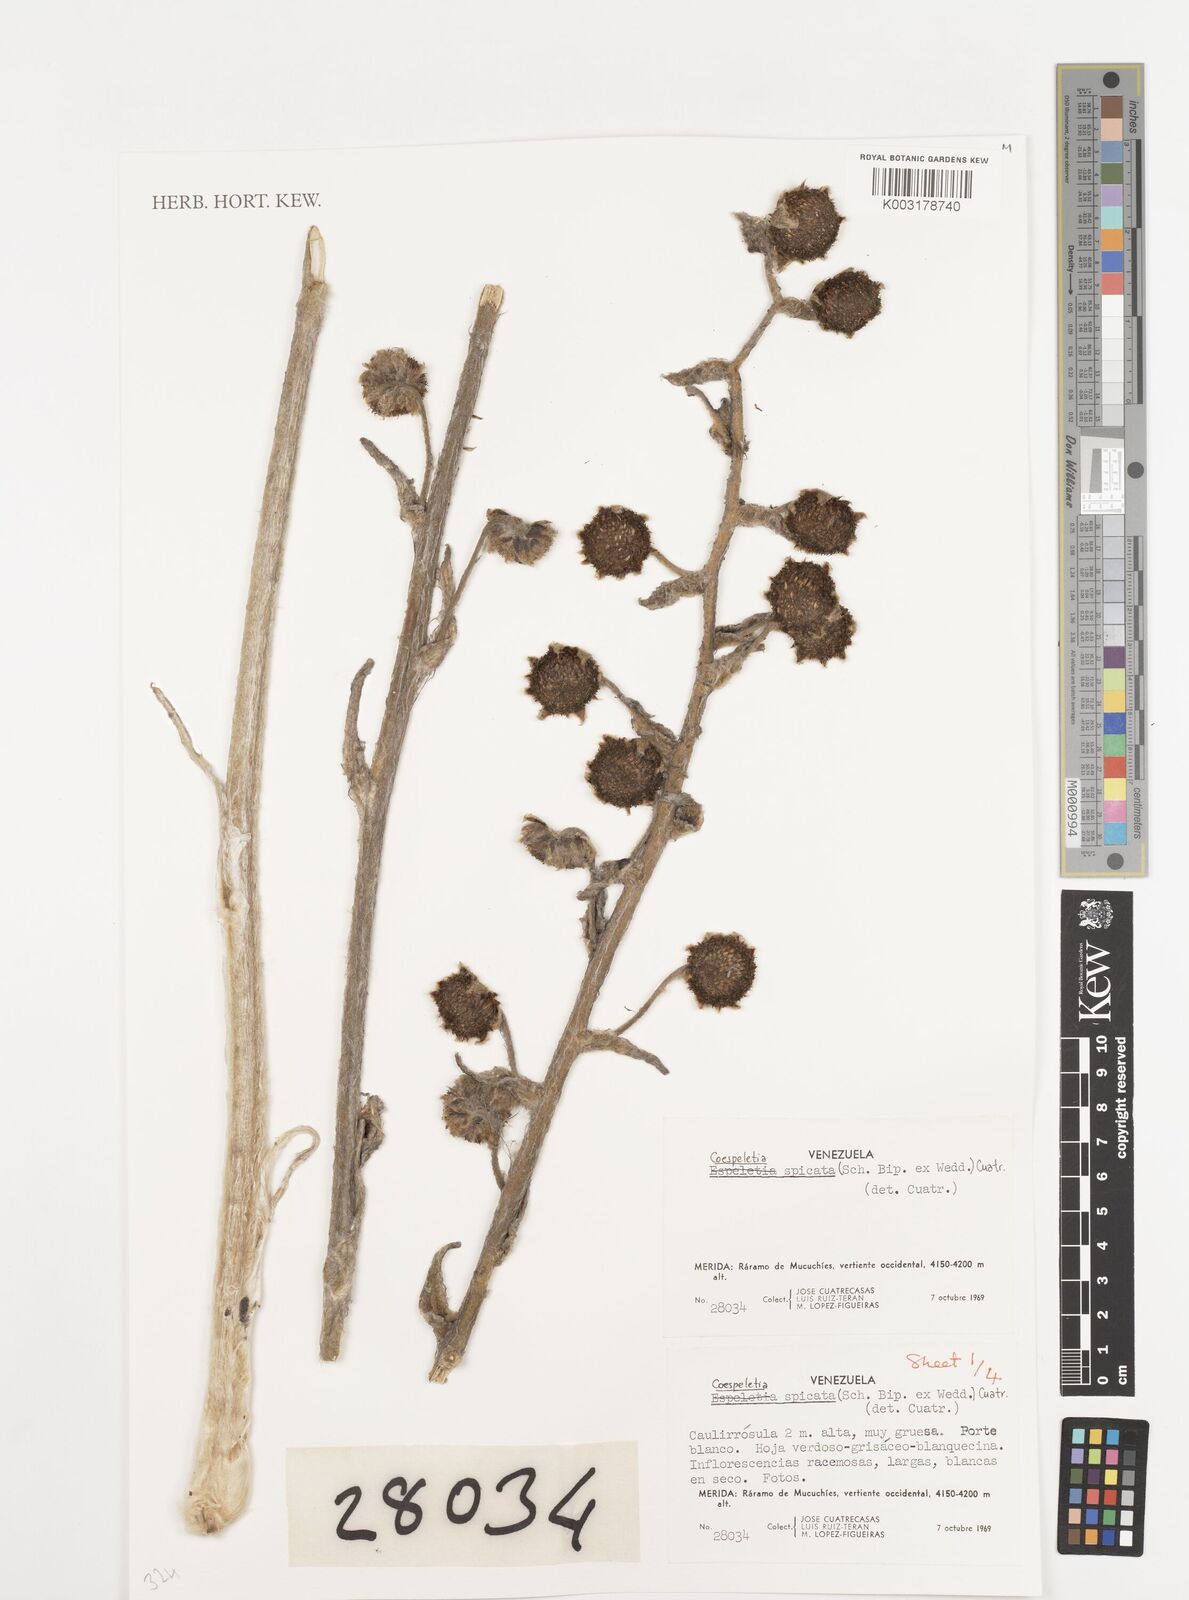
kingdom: Plantae
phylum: Tracheophyta
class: Magnoliopsida
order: Asterales
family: Asteraceae
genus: Espeletia
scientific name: Espeletia spicata
